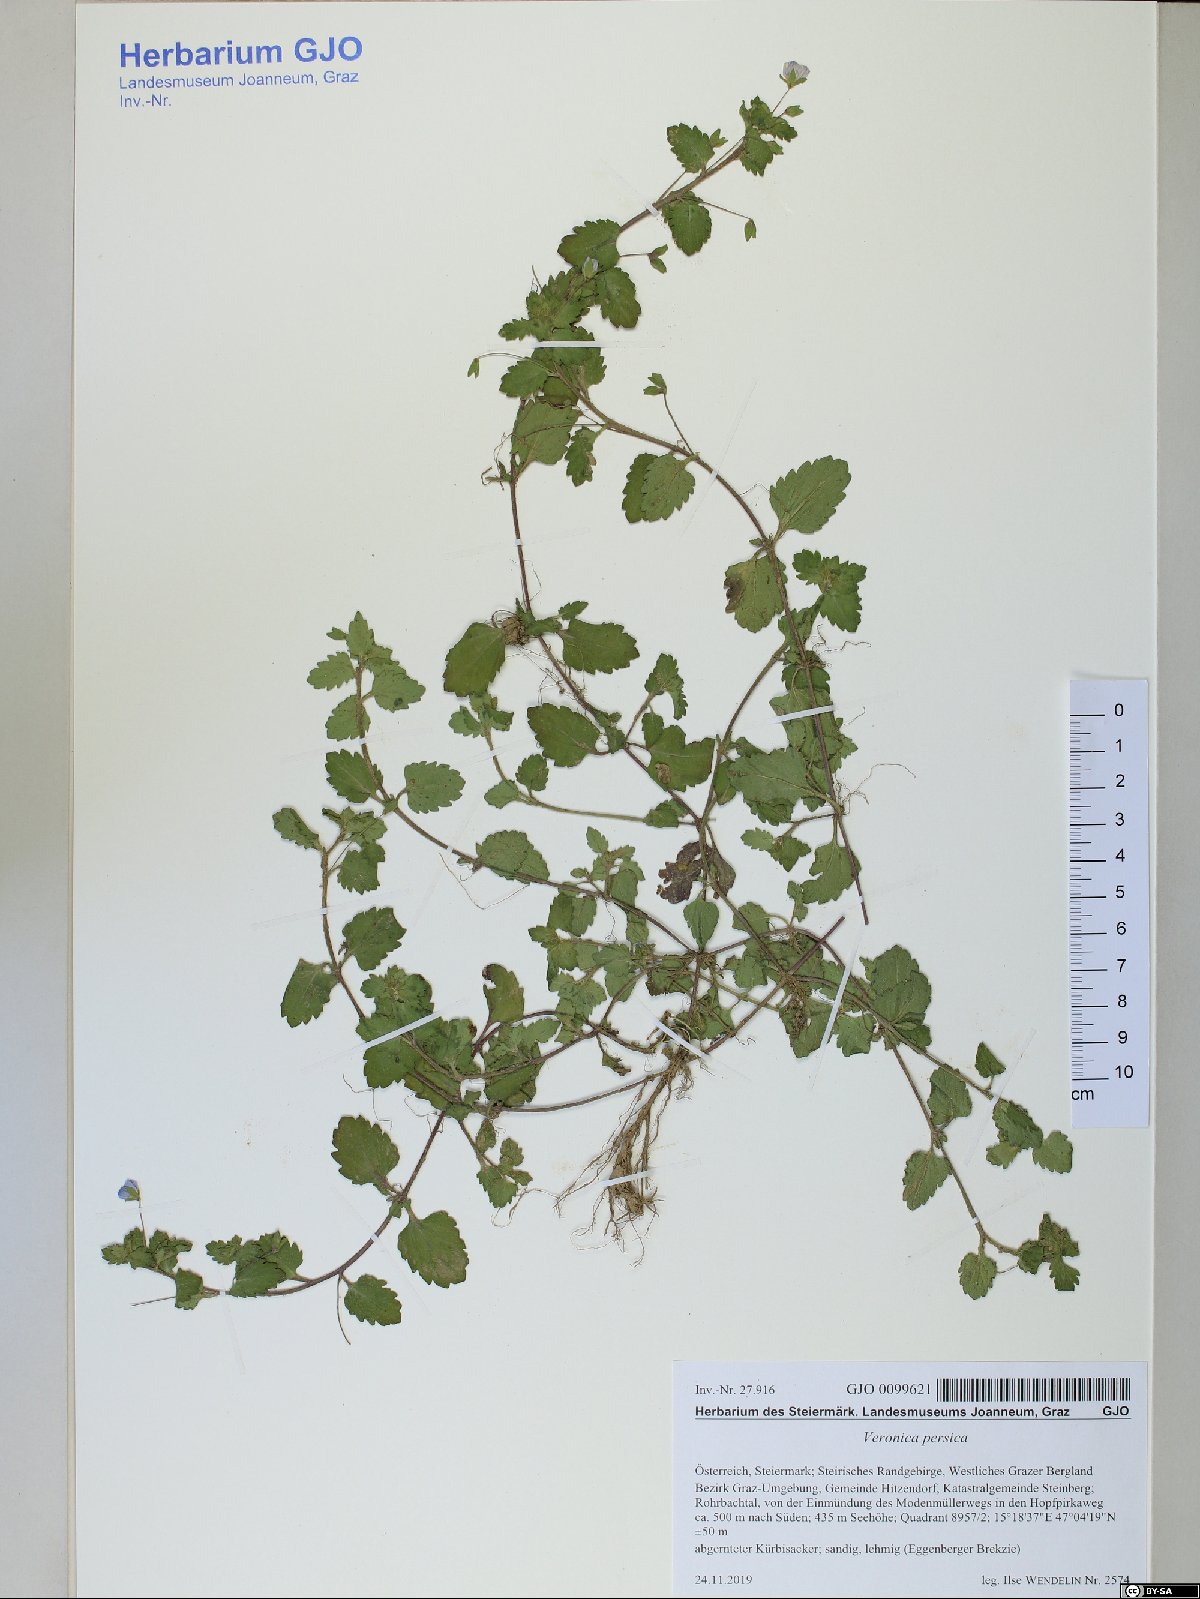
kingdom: Plantae
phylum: Tracheophyta
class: Magnoliopsida
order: Lamiales
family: Plantaginaceae
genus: Veronica
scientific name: Veronica persica
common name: Common field-speedwell
